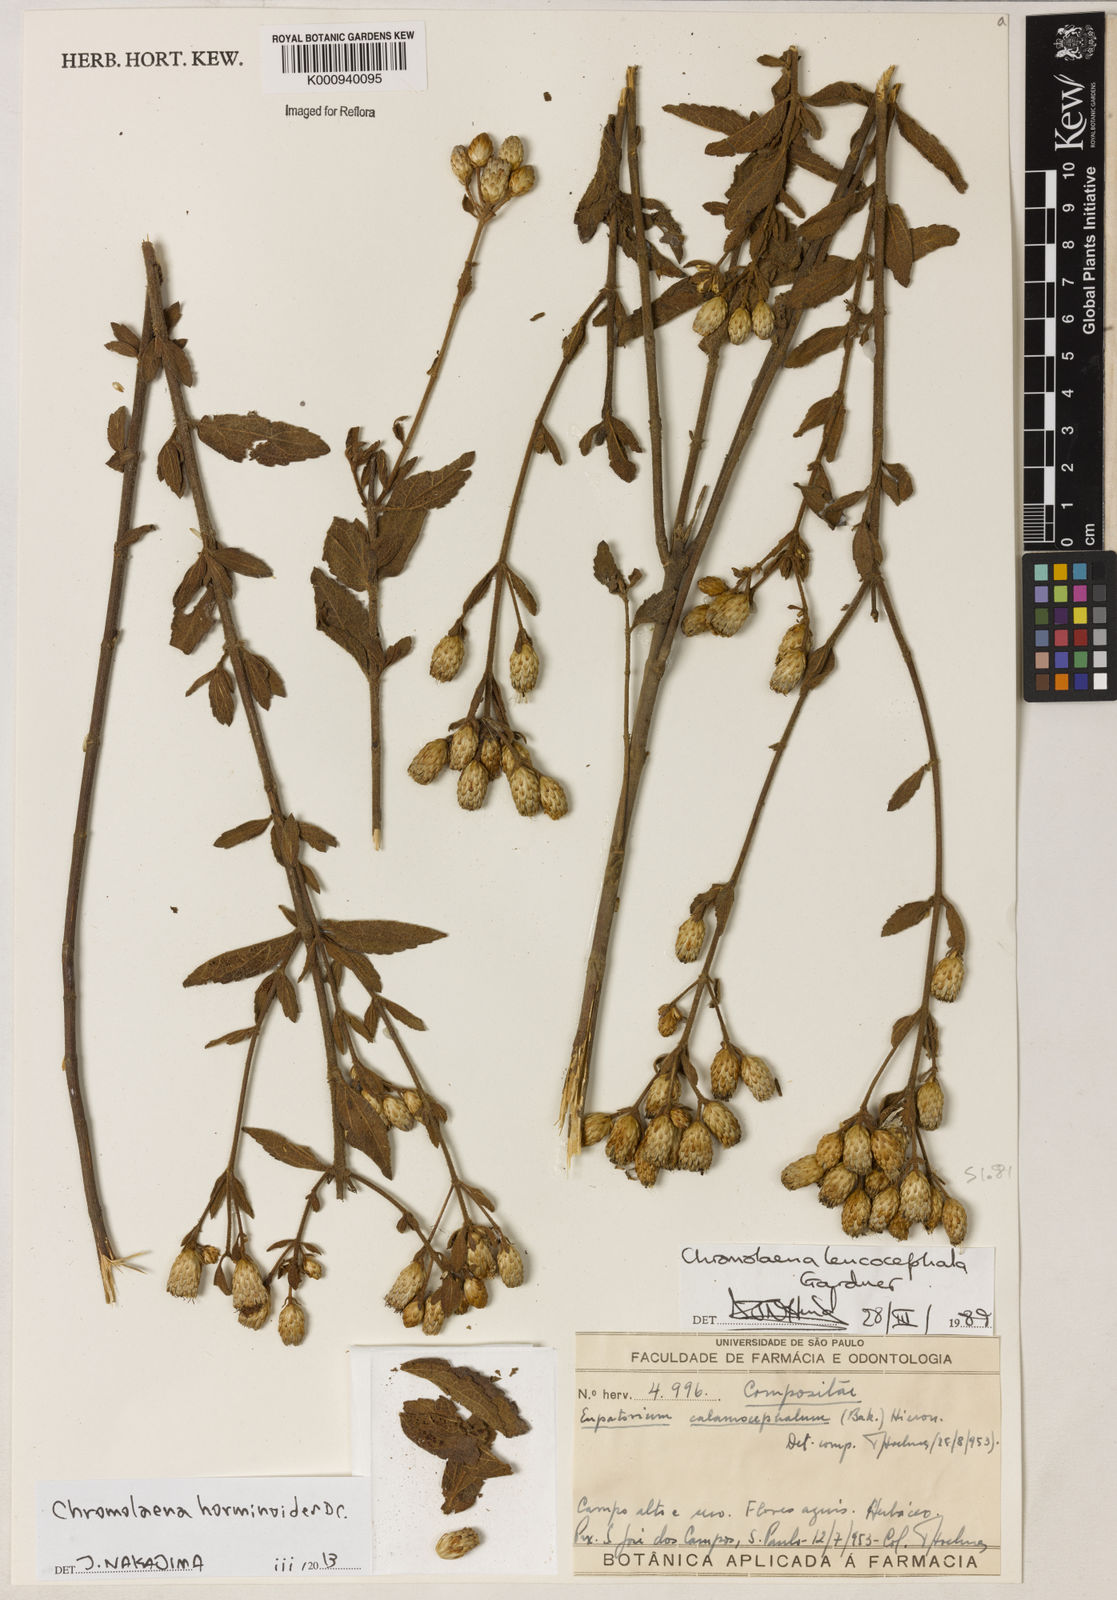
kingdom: Plantae
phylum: Tracheophyta
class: Magnoliopsida
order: Asterales
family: Asteraceae
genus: Chromolaena
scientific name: Chromolaena horminoides
